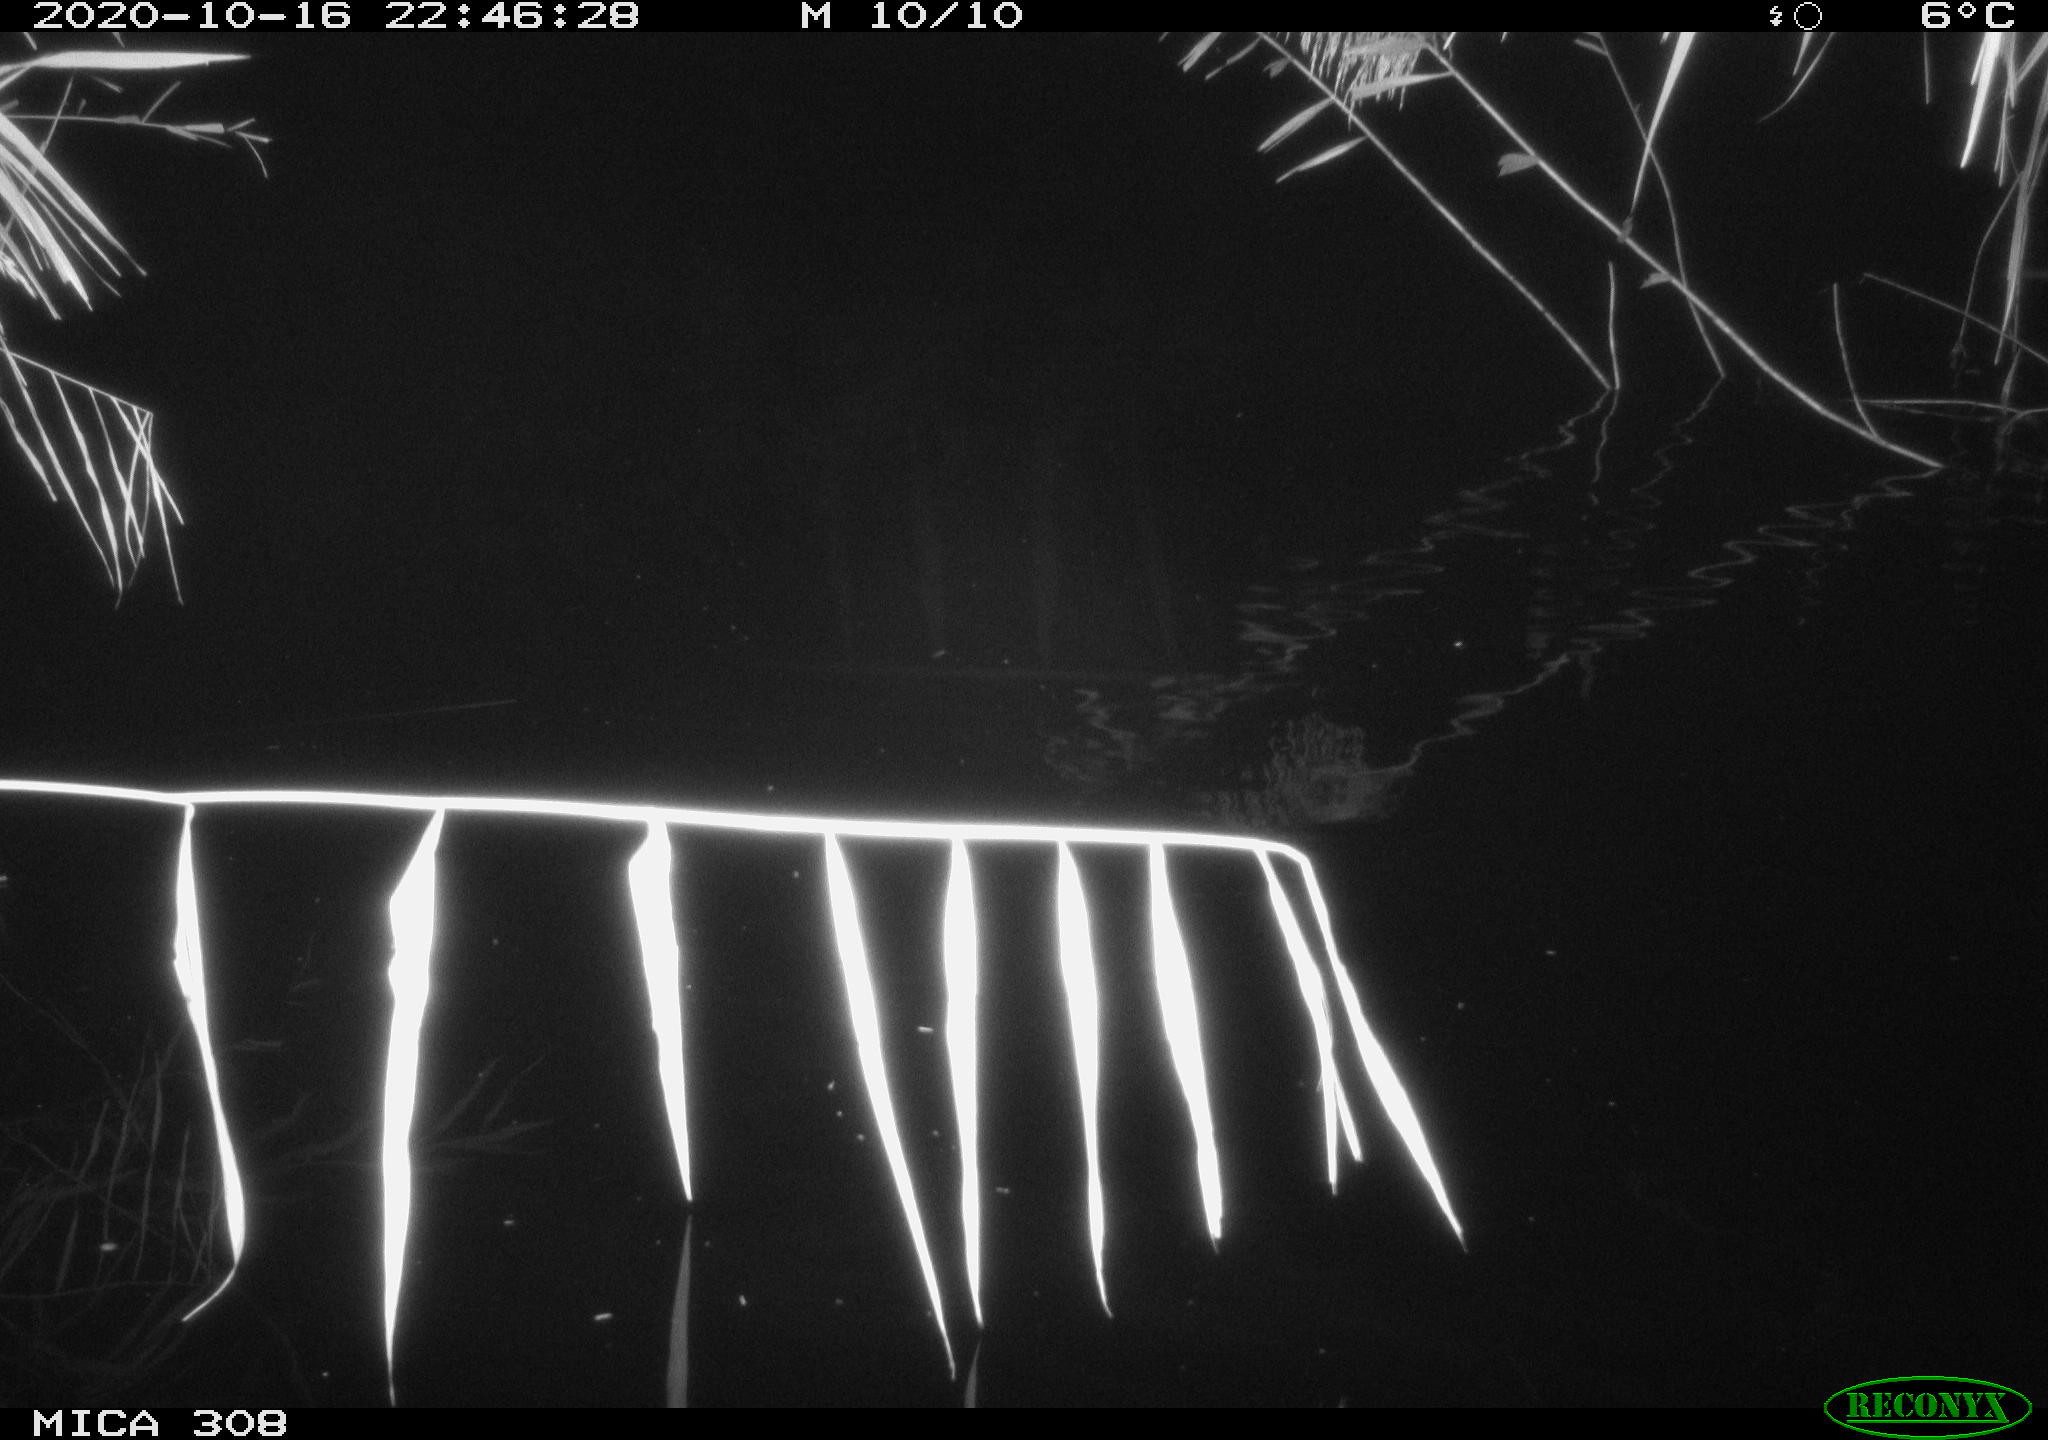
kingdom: Animalia
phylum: Chordata
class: Mammalia
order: Rodentia
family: Muridae
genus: Rattus
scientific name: Rattus norvegicus
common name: Brown rat
